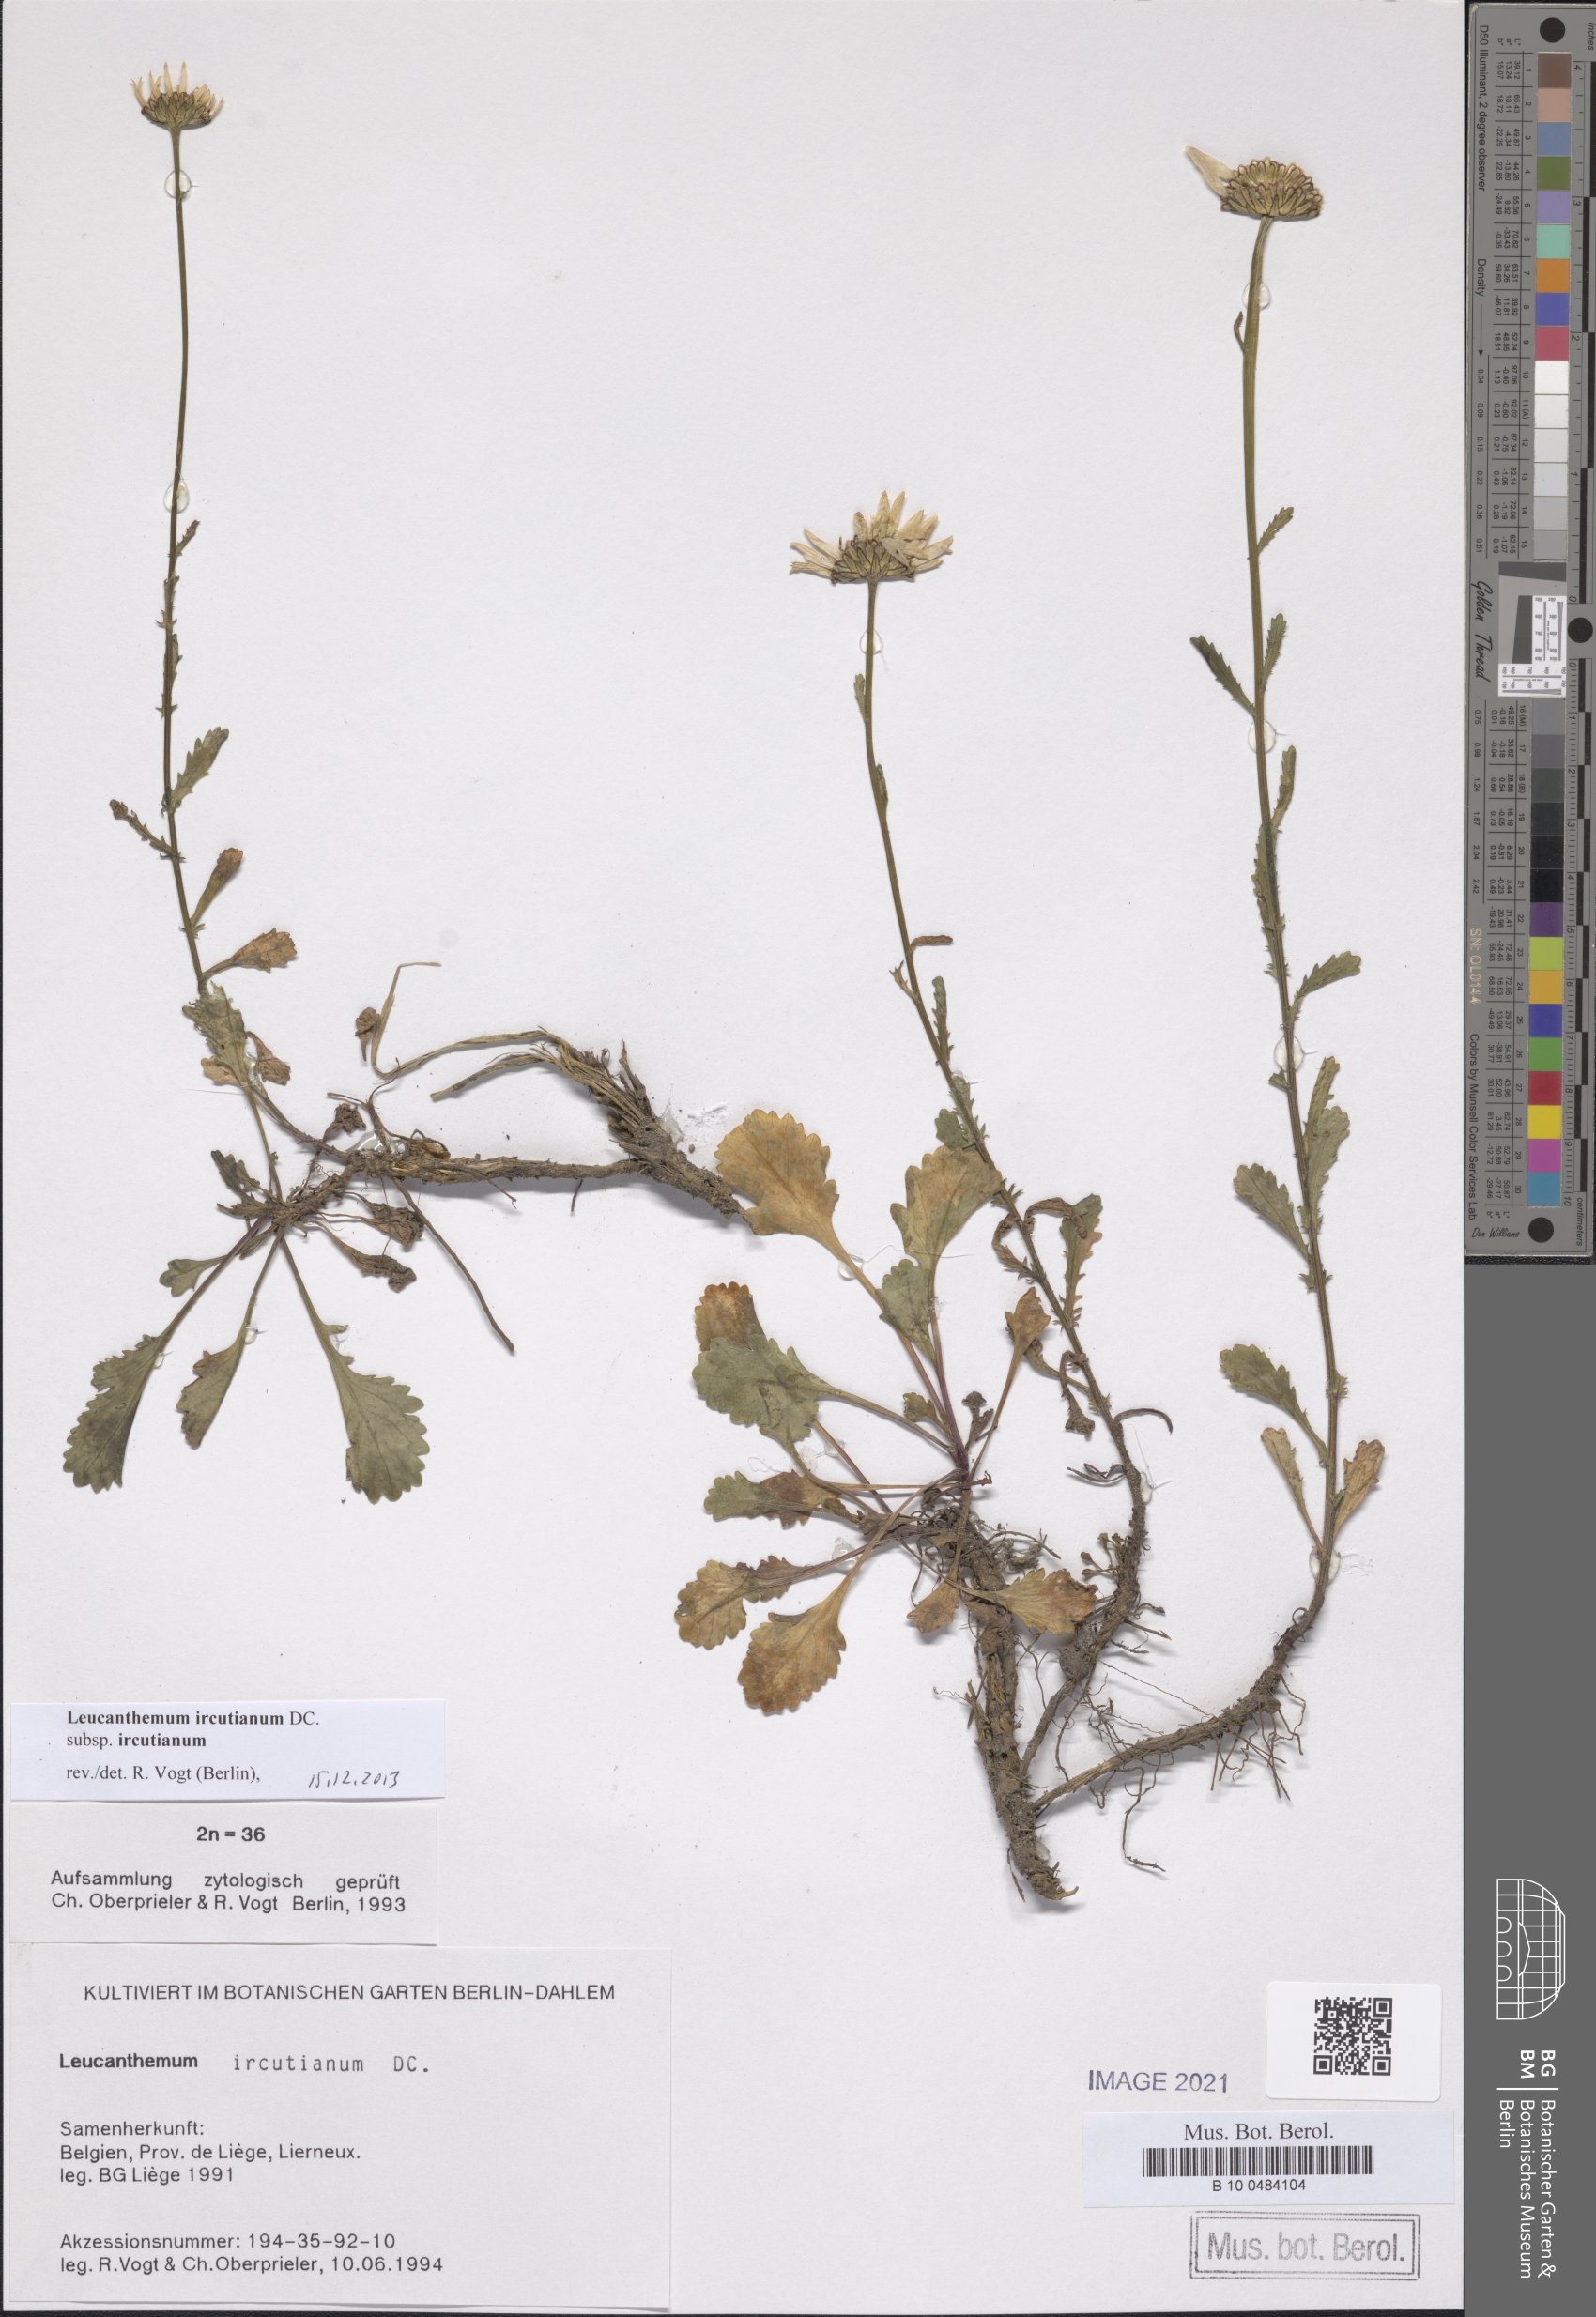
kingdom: Plantae
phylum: Tracheophyta
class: Magnoliopsida
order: Asterales
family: Asteraceae
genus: Leucanthemum
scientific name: Leucanthemum ircutianum
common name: Daisy
